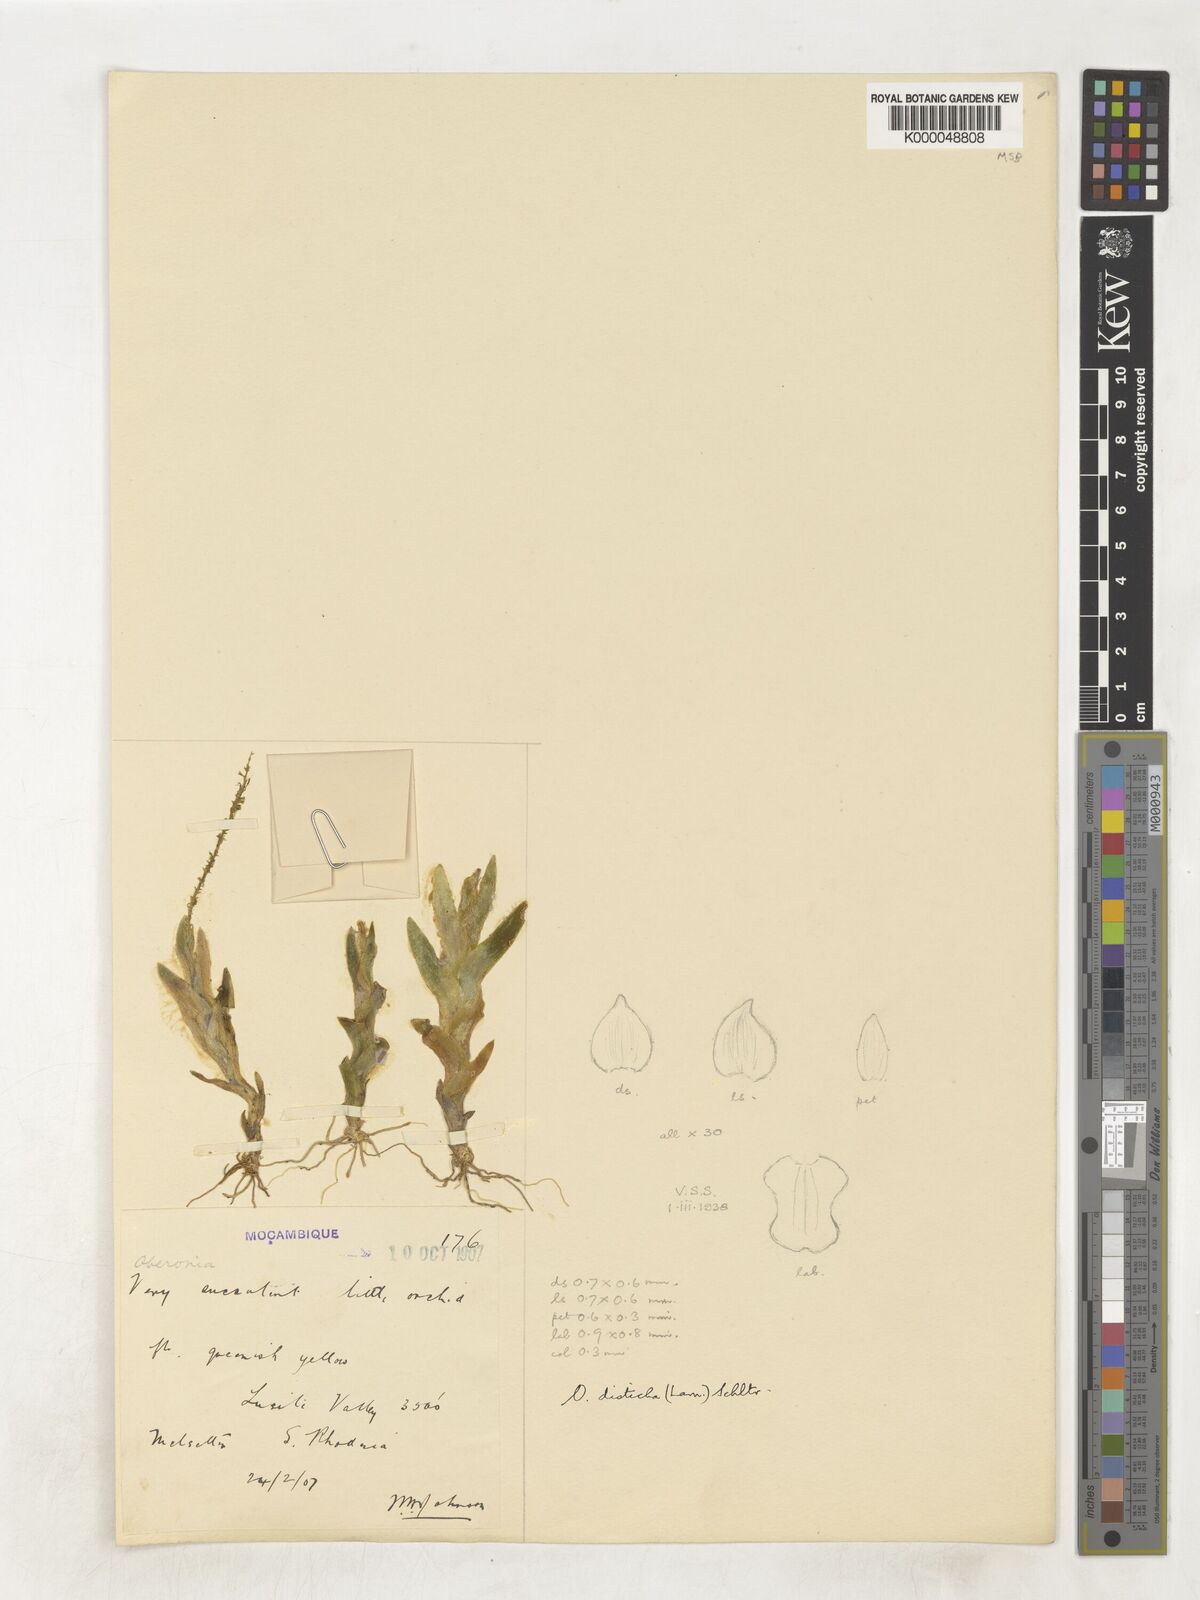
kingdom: Plantae
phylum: Tracheophyta
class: Liliopsida
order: Asparagales
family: Orchidaceae
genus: Oberonia
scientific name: Oberonia disticha
